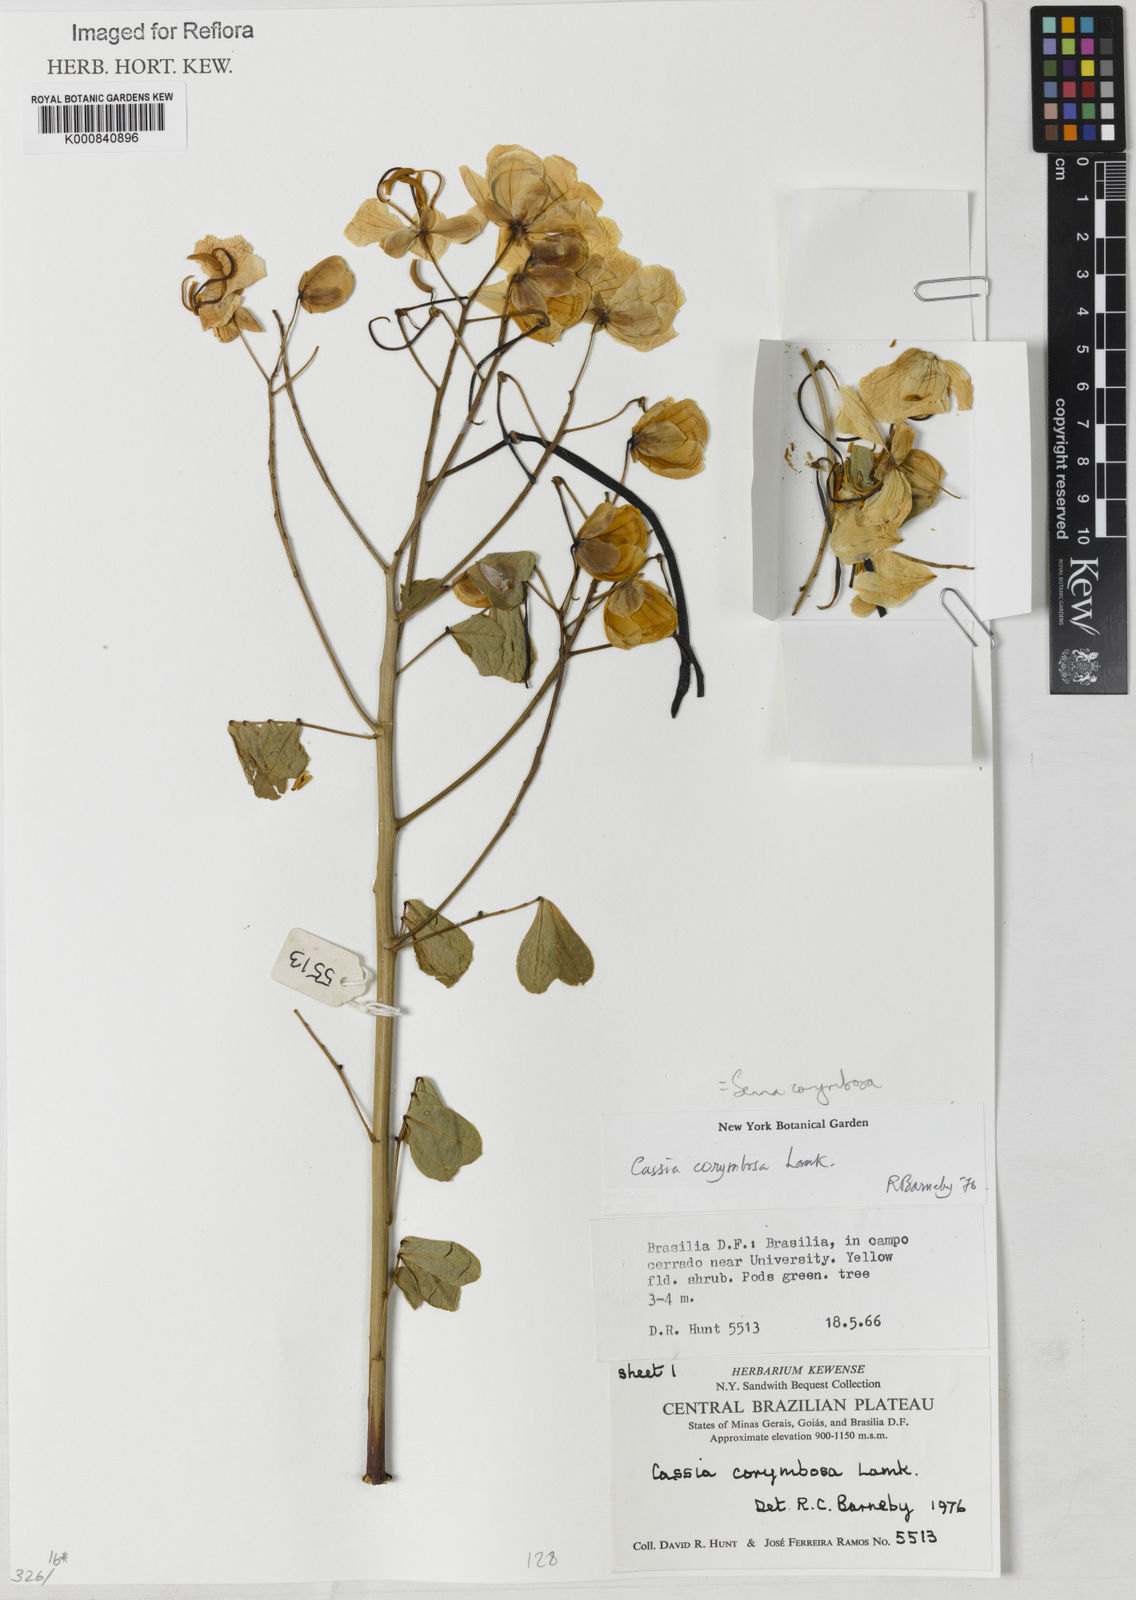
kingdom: Plantae
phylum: Tracheophyta
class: Magnoliopsida
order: Fabales
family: Fabaceae
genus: Senna
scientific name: Senna corymbosa
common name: Argentine senna
